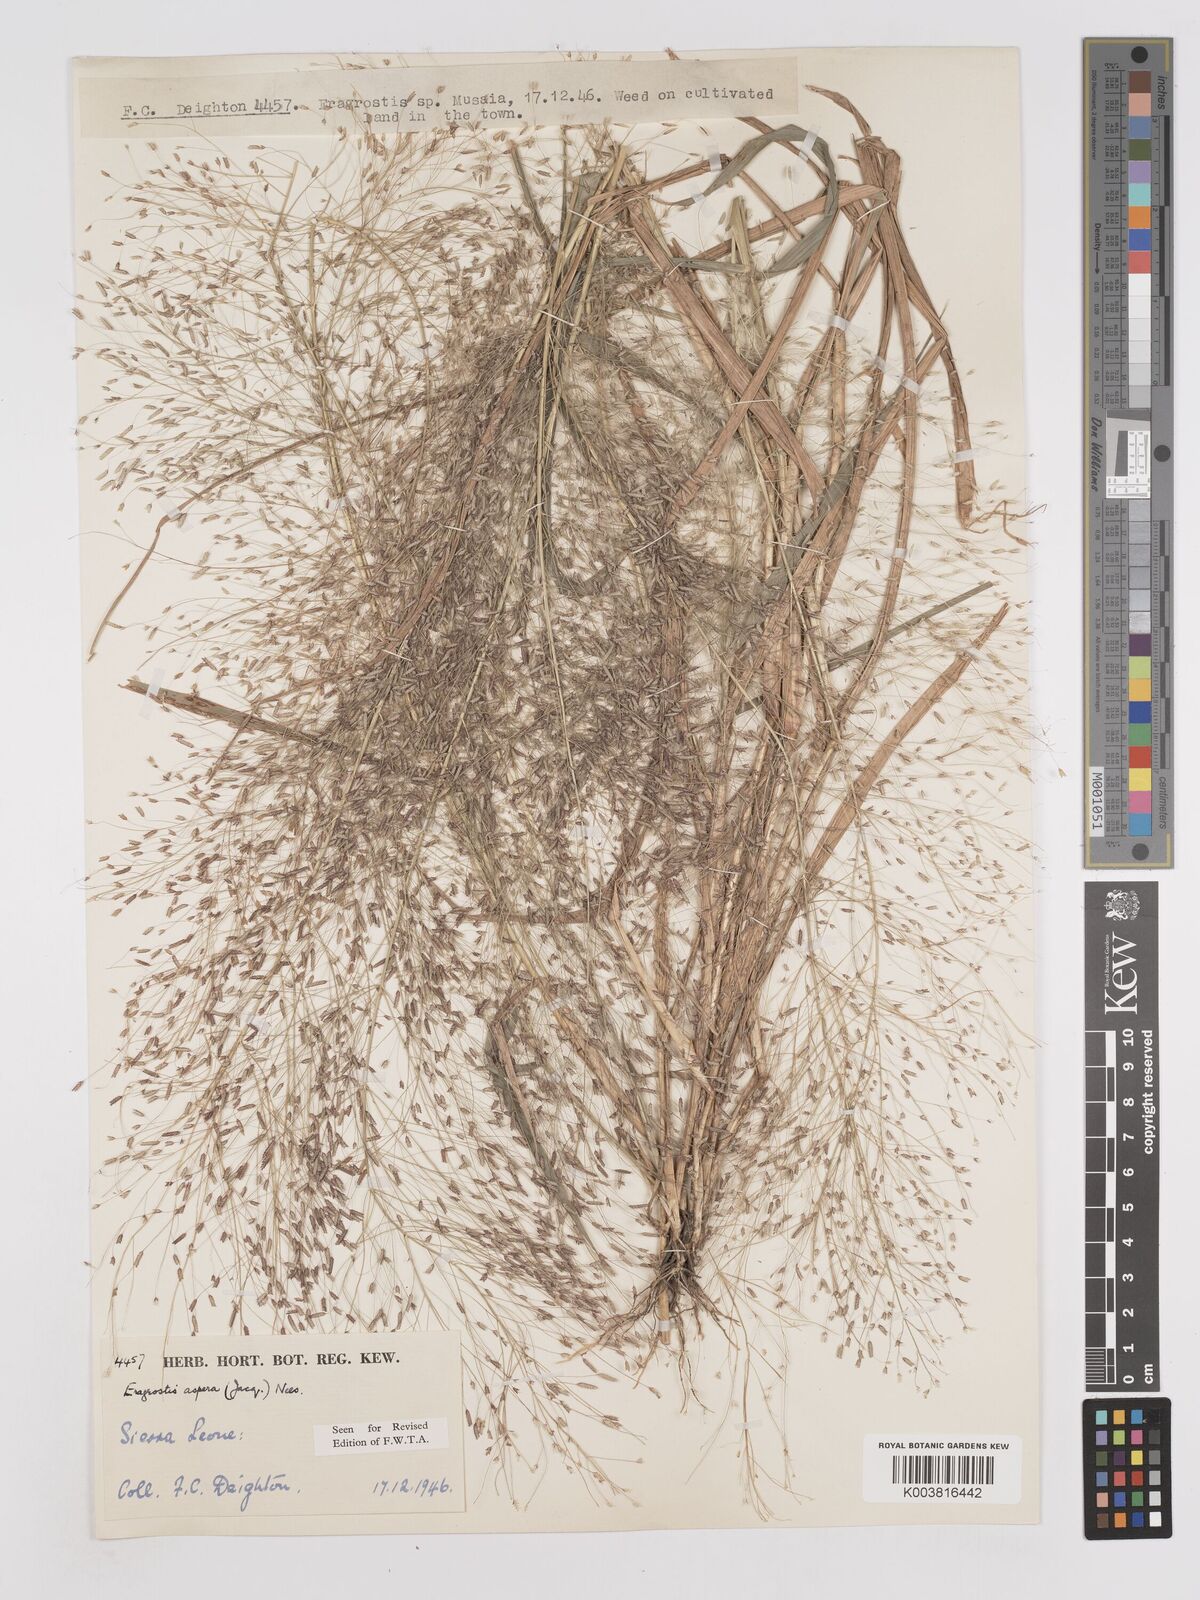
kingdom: Plantae
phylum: Tracheophyta
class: Liliopsida
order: Poales
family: Poaceae
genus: Eragrostis
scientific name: Eragrostis aspera
